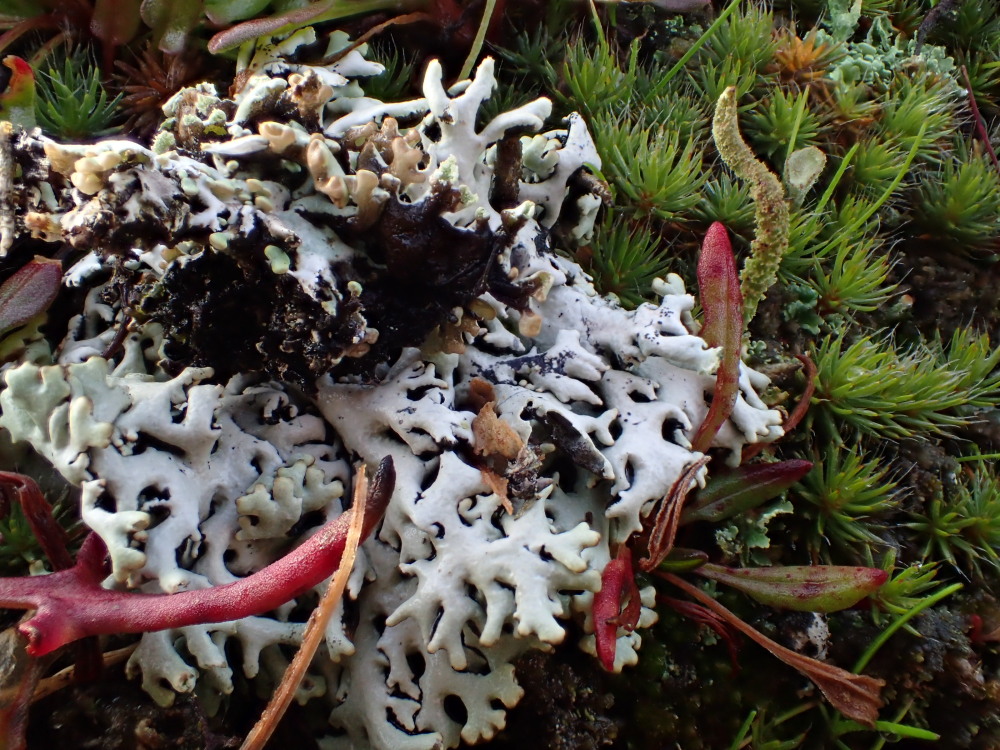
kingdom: Fungi
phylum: Ascomycota
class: Lecanoromycetes
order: Lecanorales
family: Parmeliaceae
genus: Hypogymnia
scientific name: Hypogymnia physodes
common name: almindelig kvistlav
